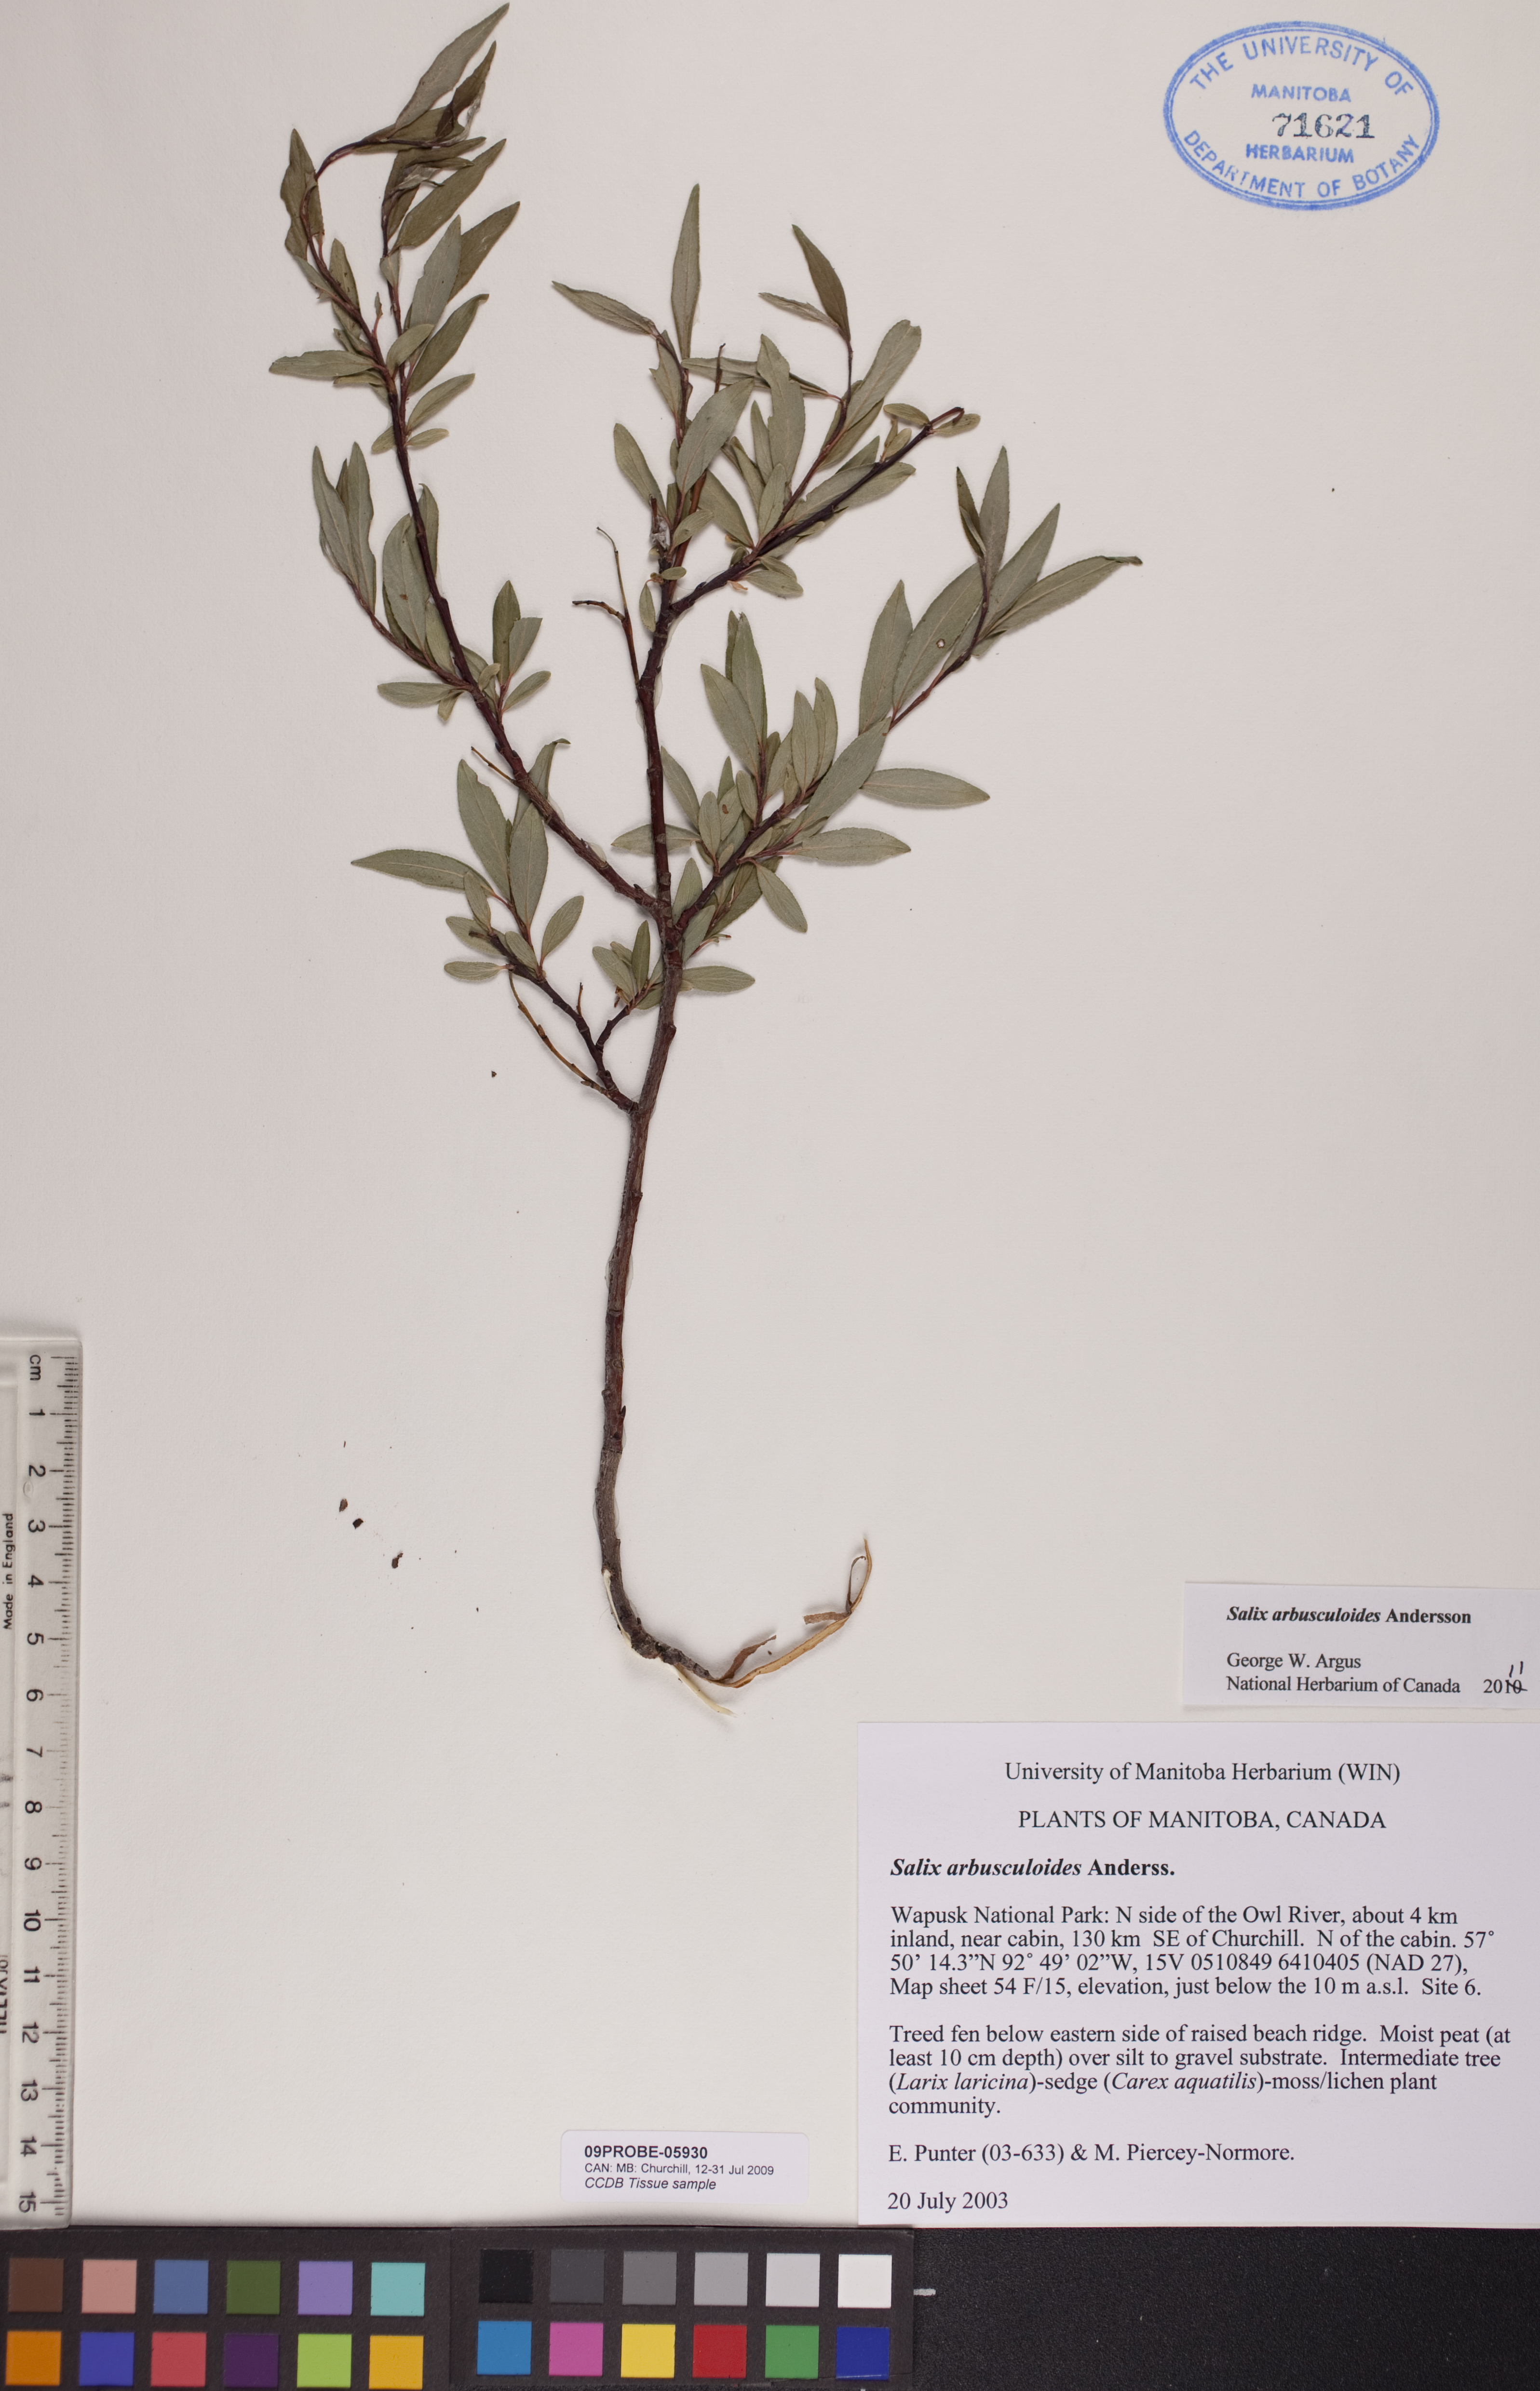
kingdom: Plantae
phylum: Tracheophyta
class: Magnoliopsida
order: Malpighiales
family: Salicaceae
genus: Salix
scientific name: Salix arbusculoides
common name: Little-tree willow
